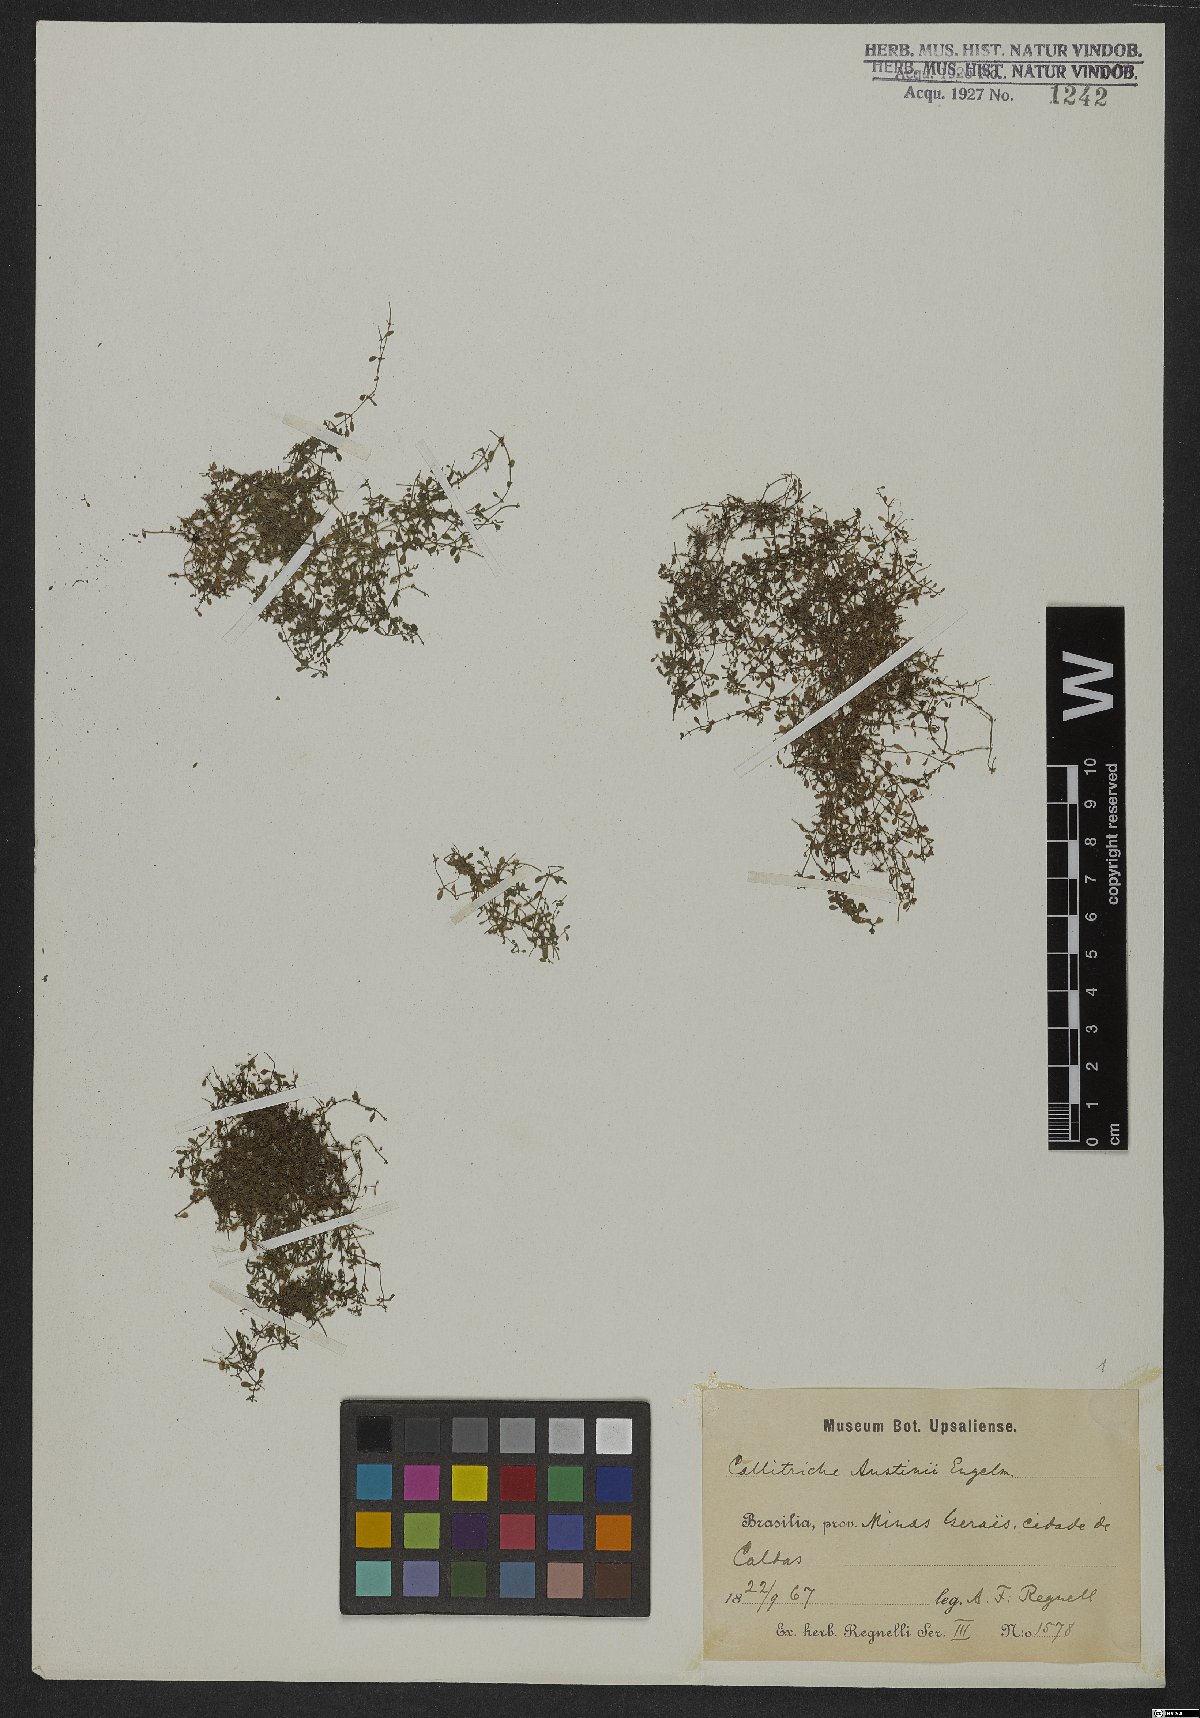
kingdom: Plantae
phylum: Tracheophyta
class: Magnoliopsida
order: Lamiales
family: Plantaginaceae
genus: Callitriche
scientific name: Callitriche terrestris
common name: Terrestrial water-starwort
